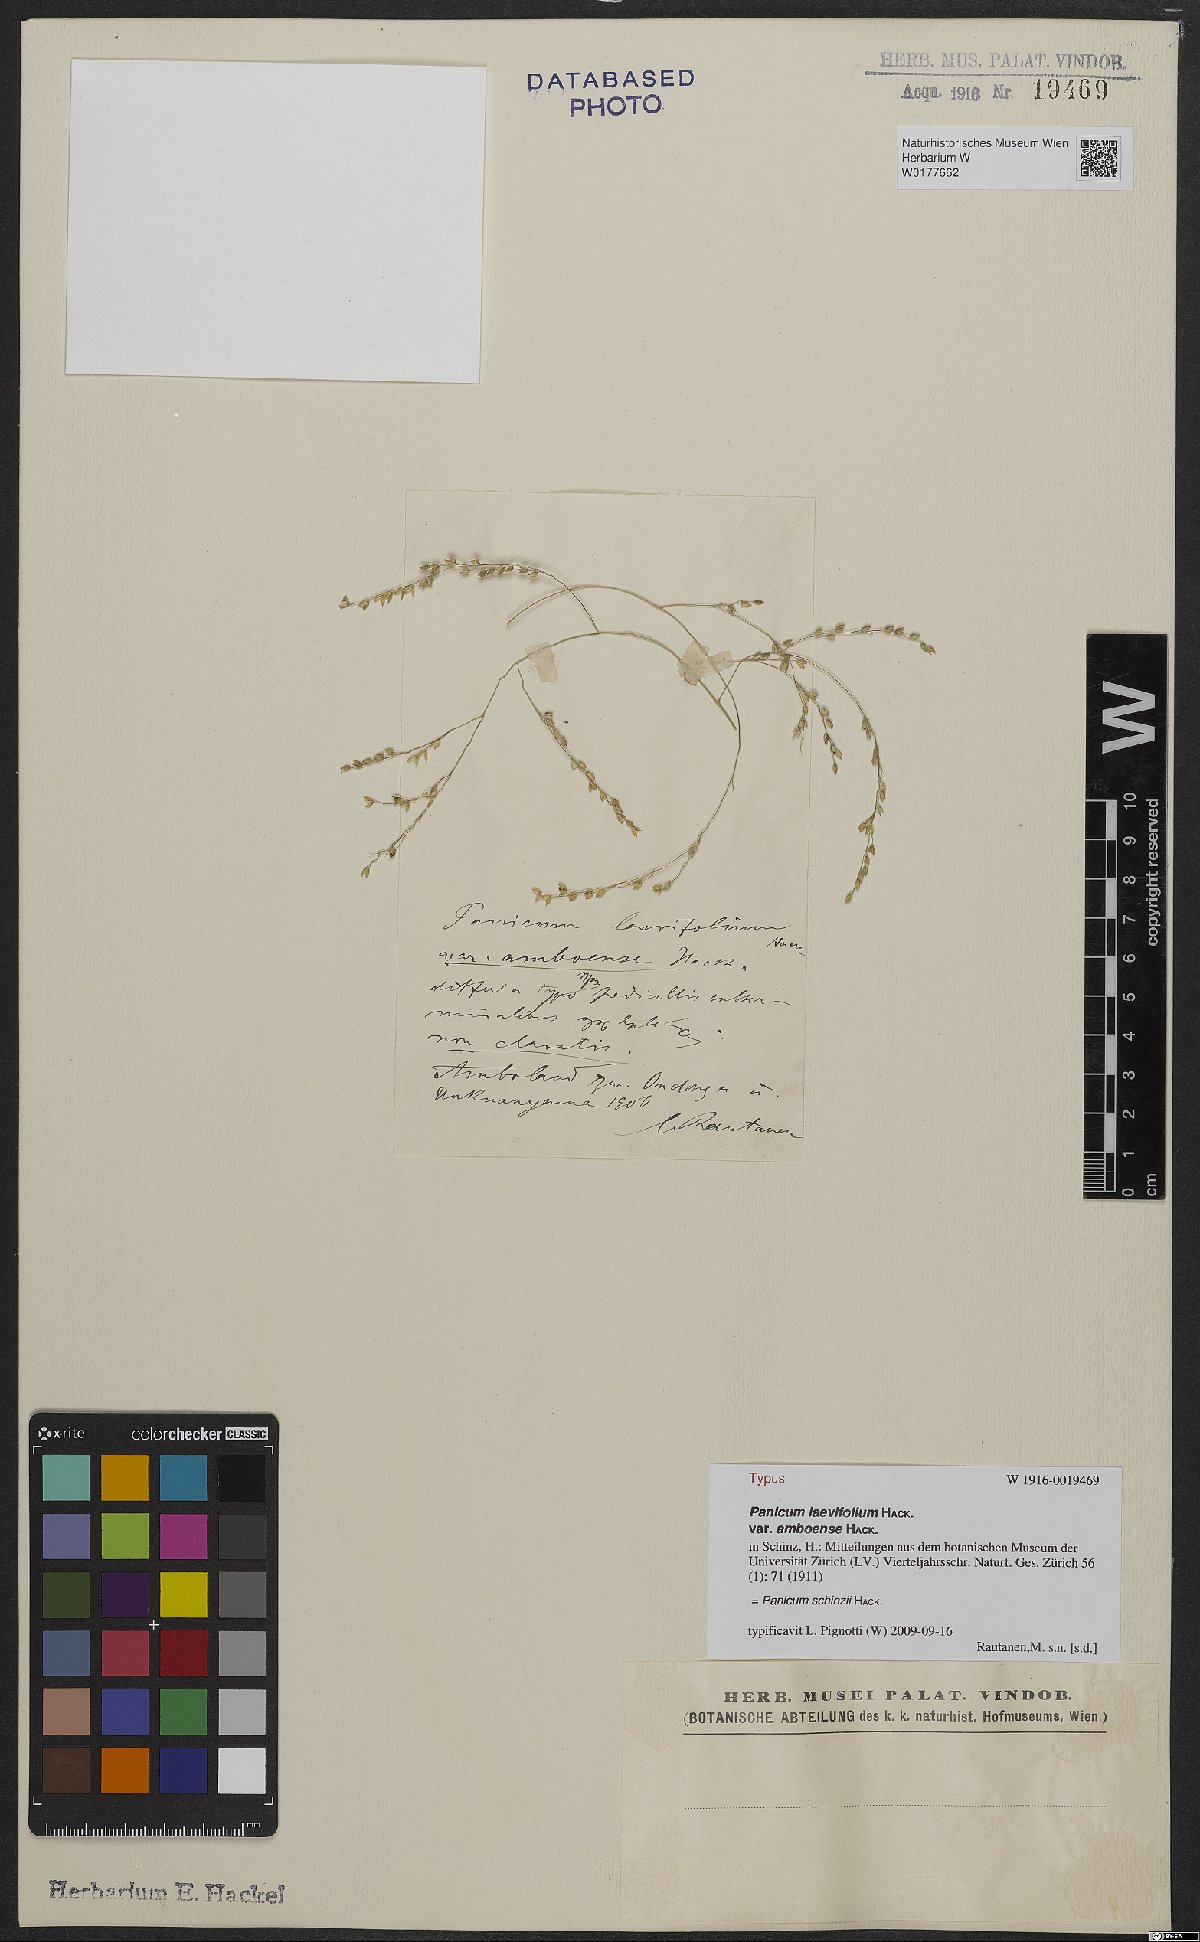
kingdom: Plantae
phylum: Tracheophyta
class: Liliopsida
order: Poales
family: Poaceae
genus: Panicum
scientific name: Panicum schinzii
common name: Sweet grass
